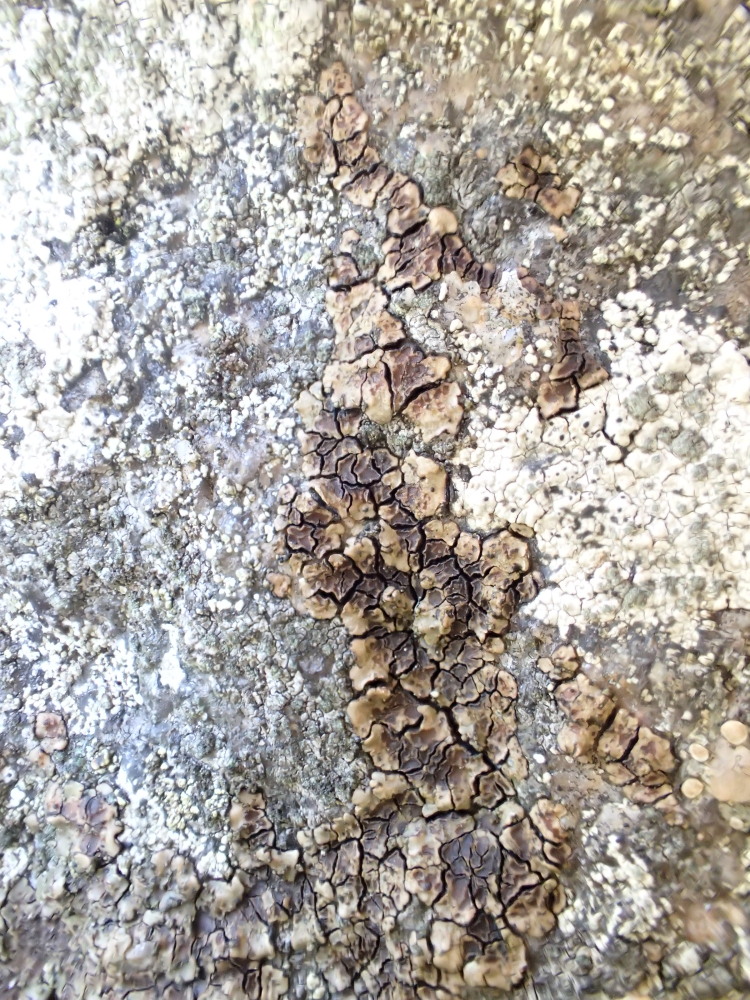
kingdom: Fungi
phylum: Ascomycota
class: Lecanoromycetes
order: Acarosporales
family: Acarosporaceae
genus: Acarospora
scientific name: Acarospora fuscata
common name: brun småsporelav
